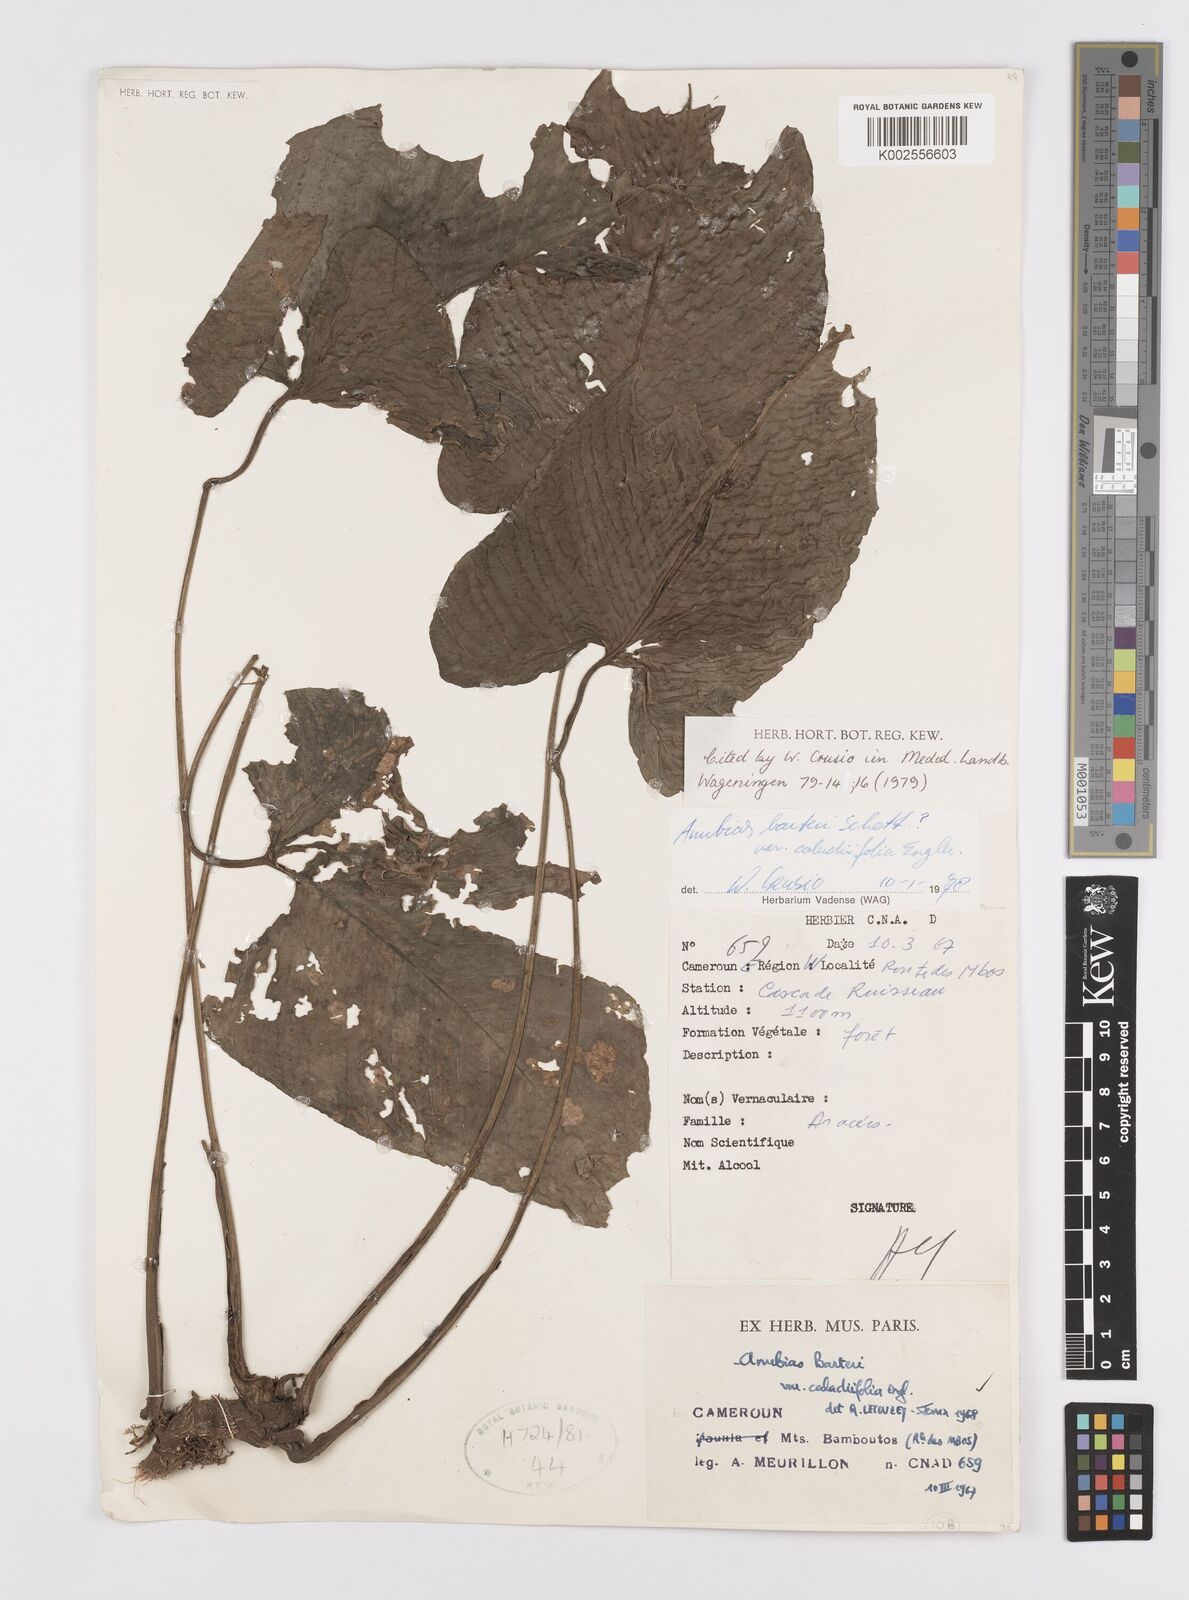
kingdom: Plantae
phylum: Tracheophyta
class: Liliopsida
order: Alismatales
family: Araceae
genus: Anubias
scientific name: Anubias barteri
